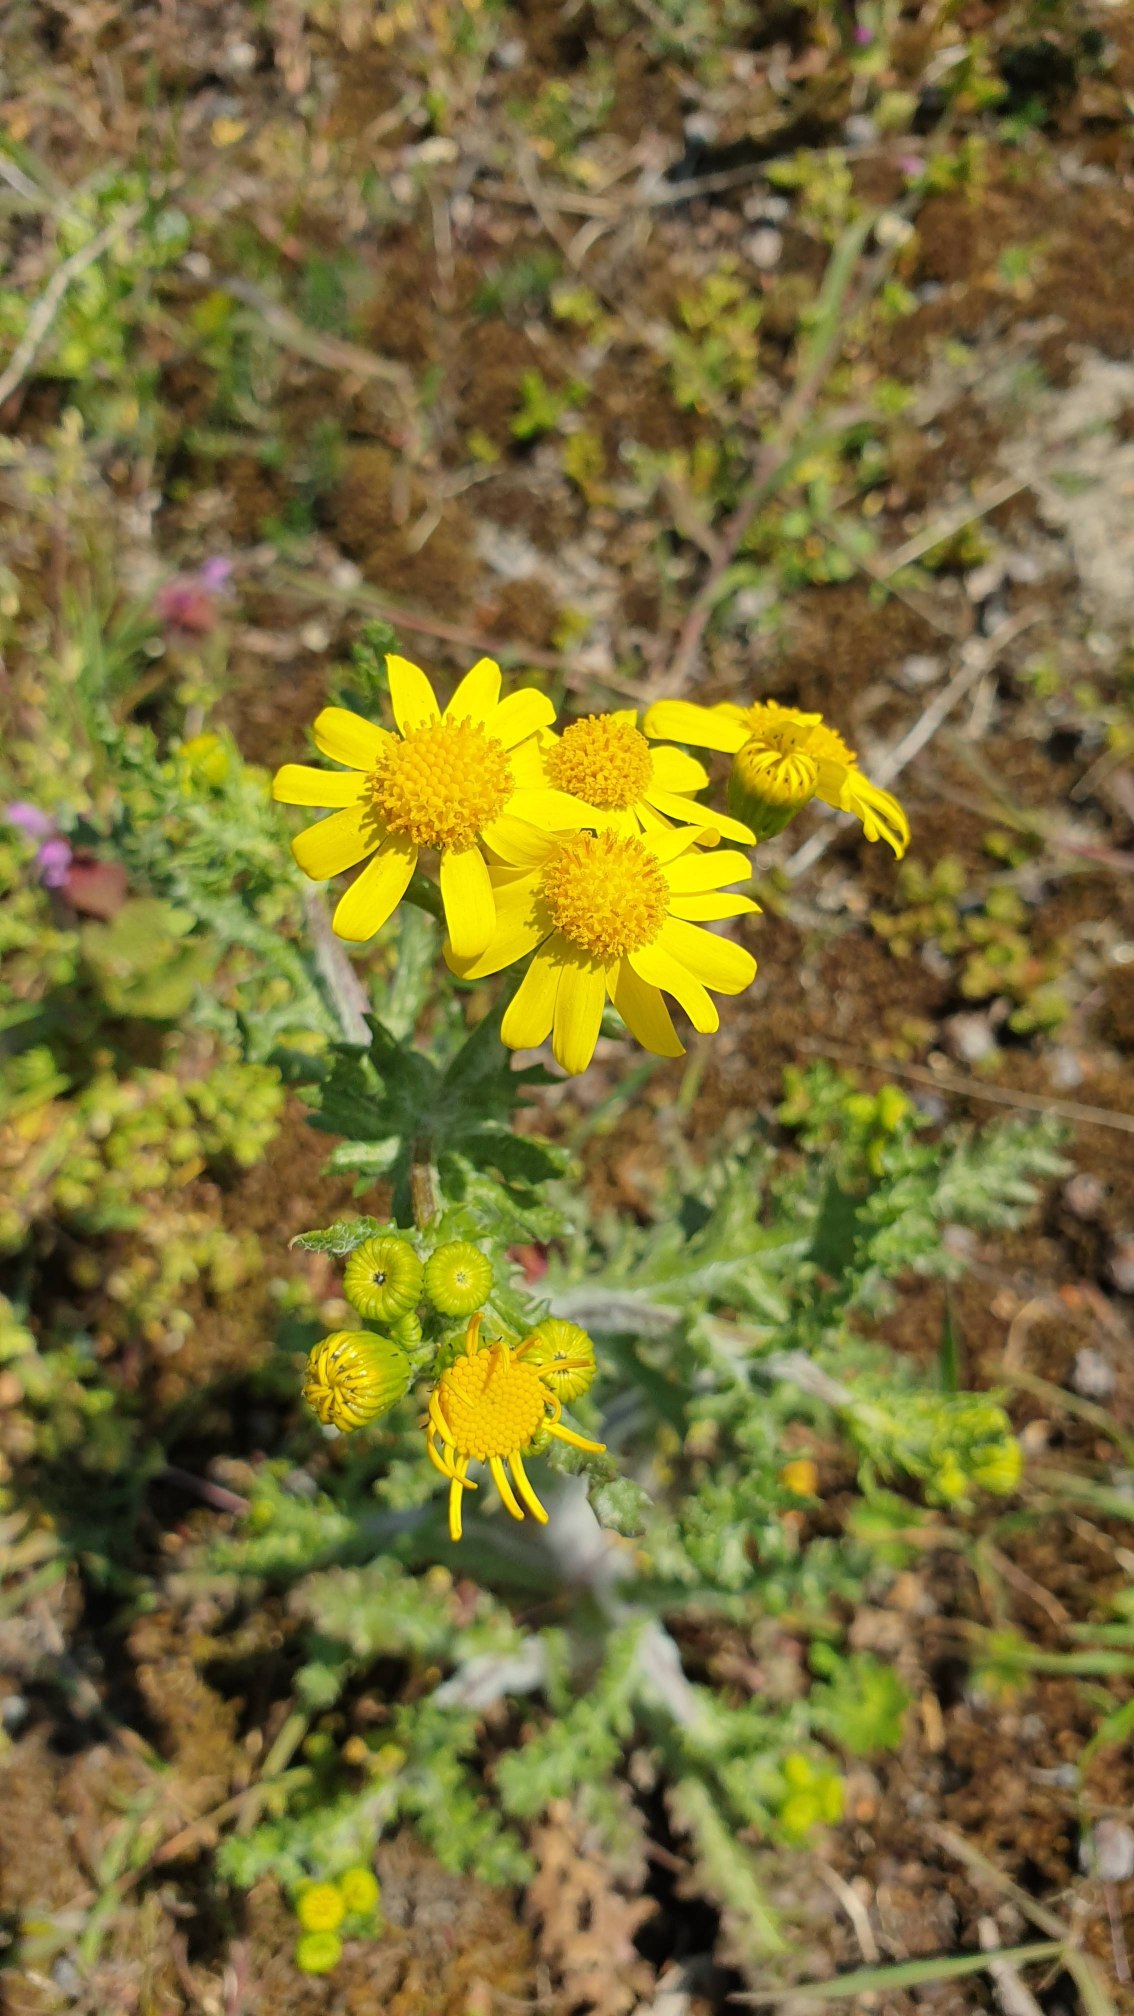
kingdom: Plantae
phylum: Tracheophyta
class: Magnoliopsida
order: Asterales
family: Asteraceae
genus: Senecio
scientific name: Senecio leucanthemifolius
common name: Vår-brandbæger
